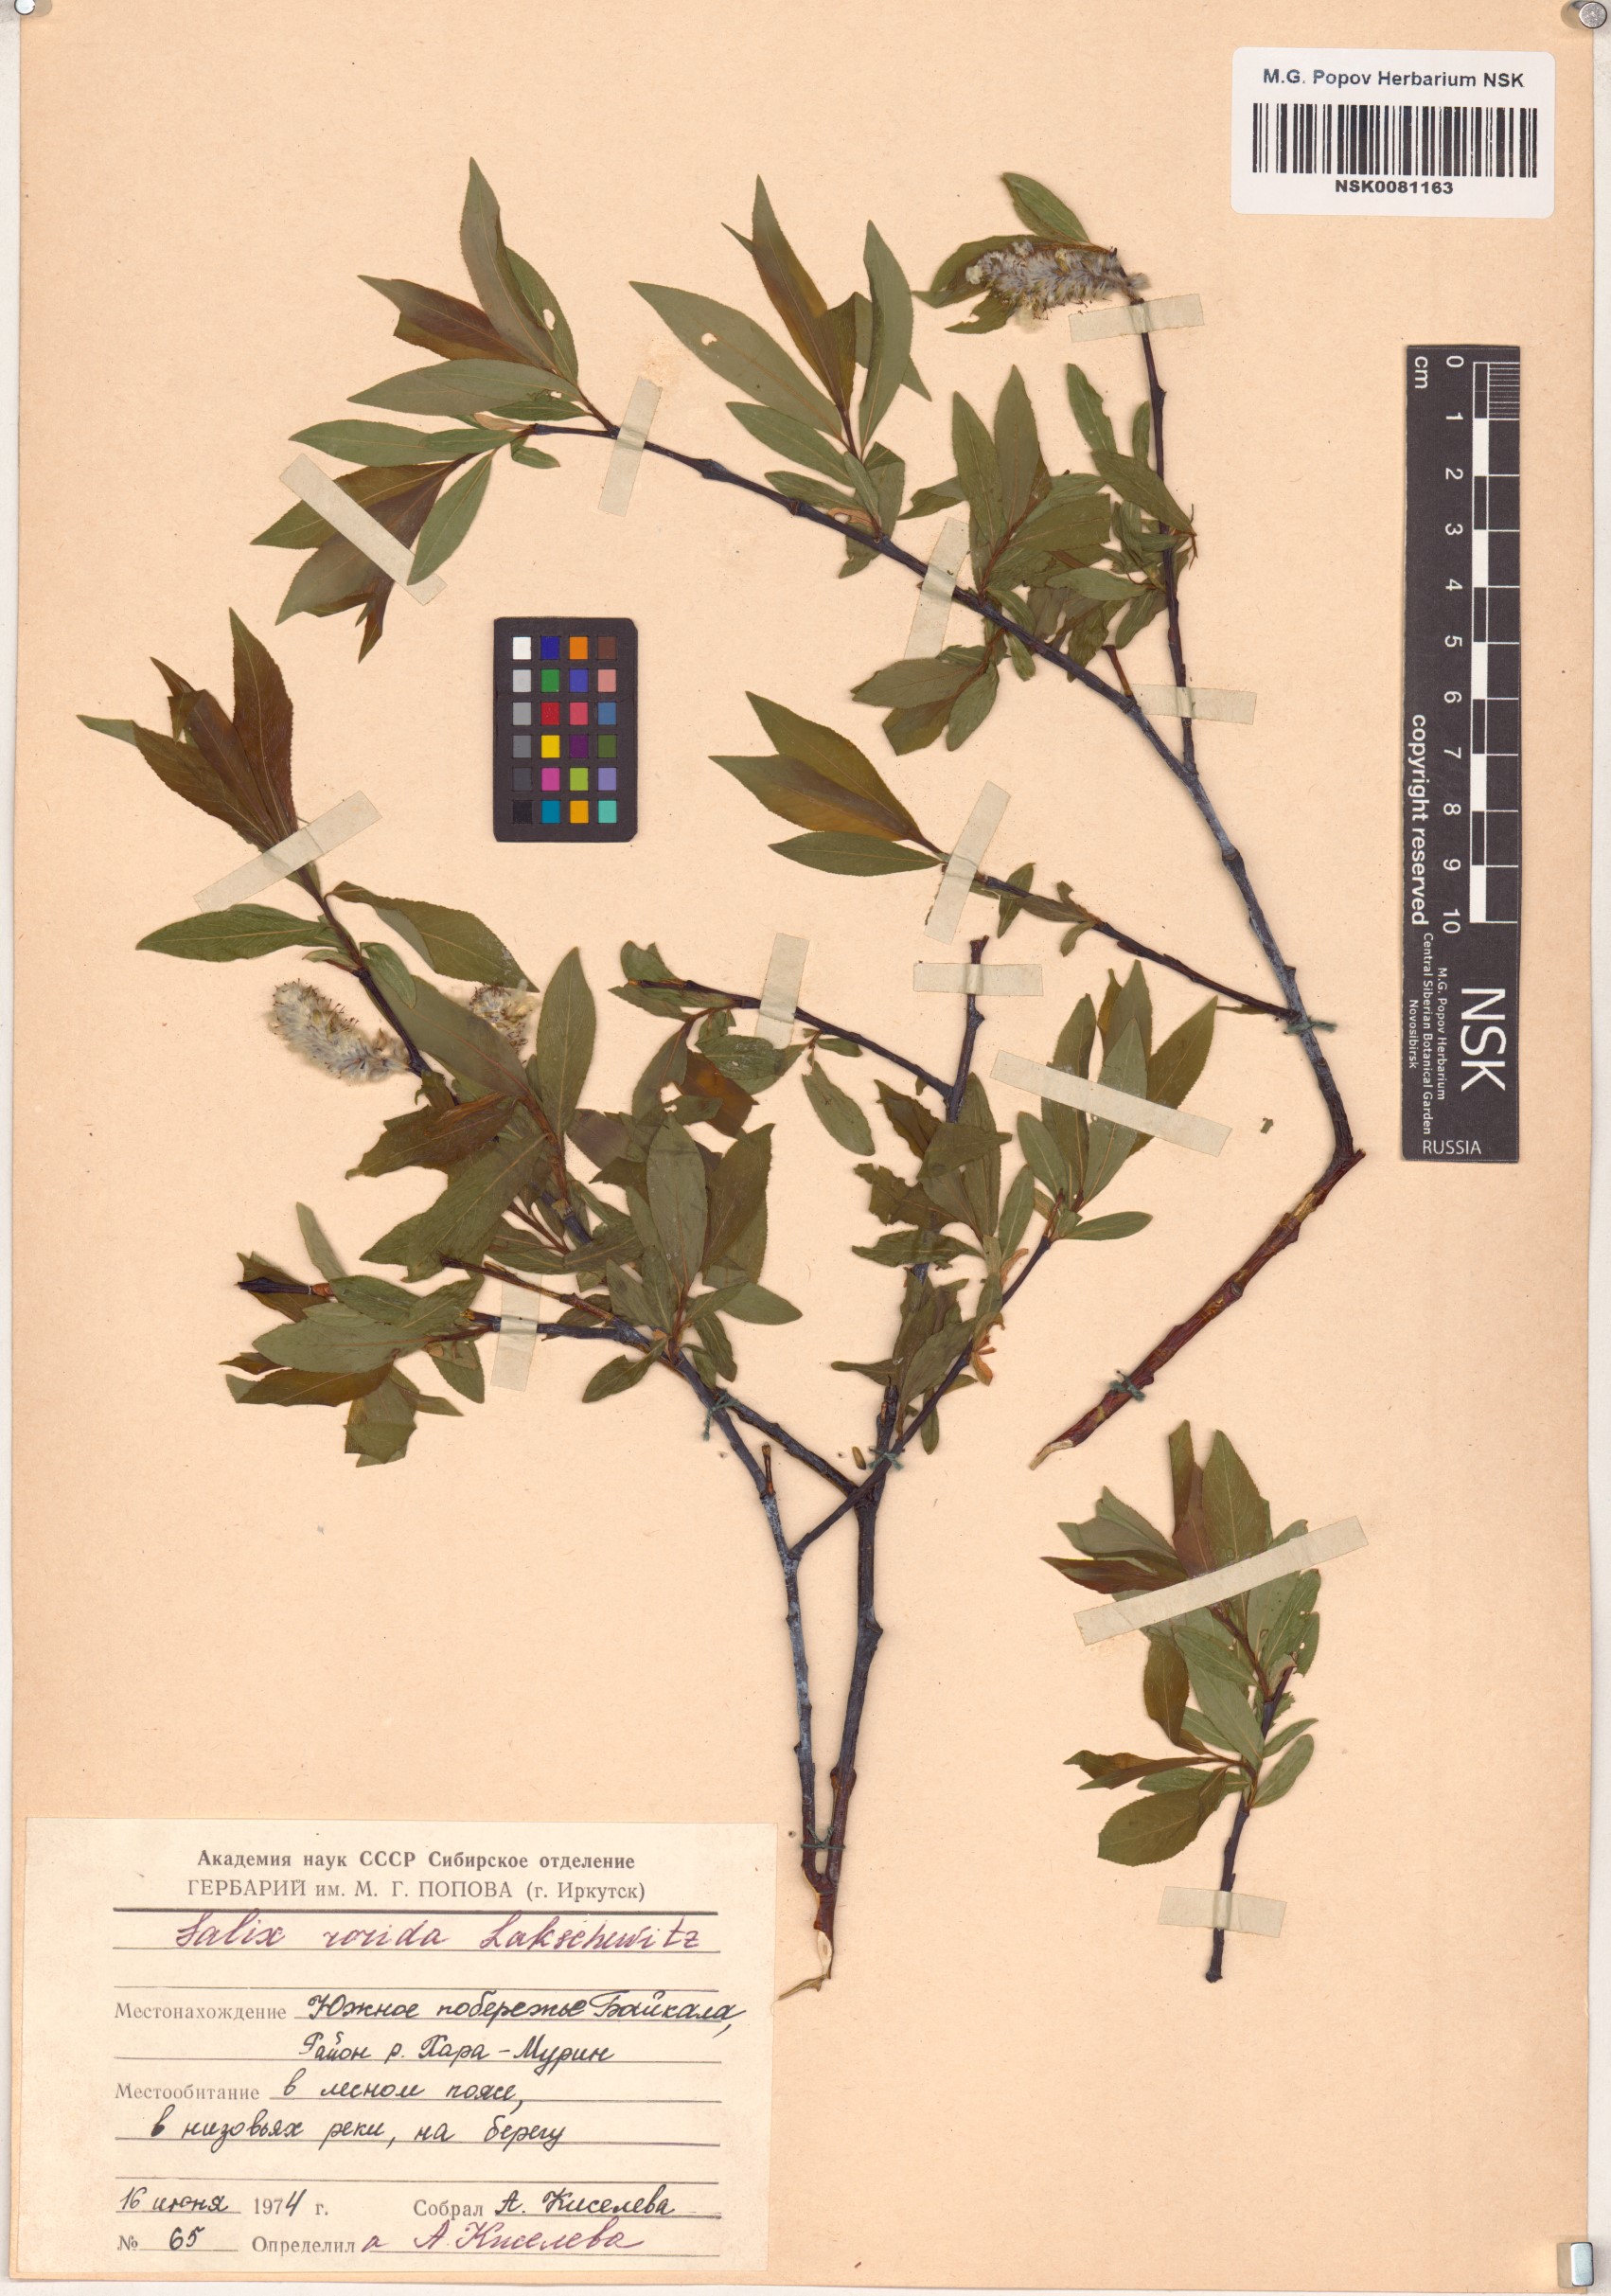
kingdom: Plantae
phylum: Tracheophyta
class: Magnoliopsida
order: Malpighiales
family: Salicaceae
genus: Salix
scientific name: Salix rorida
